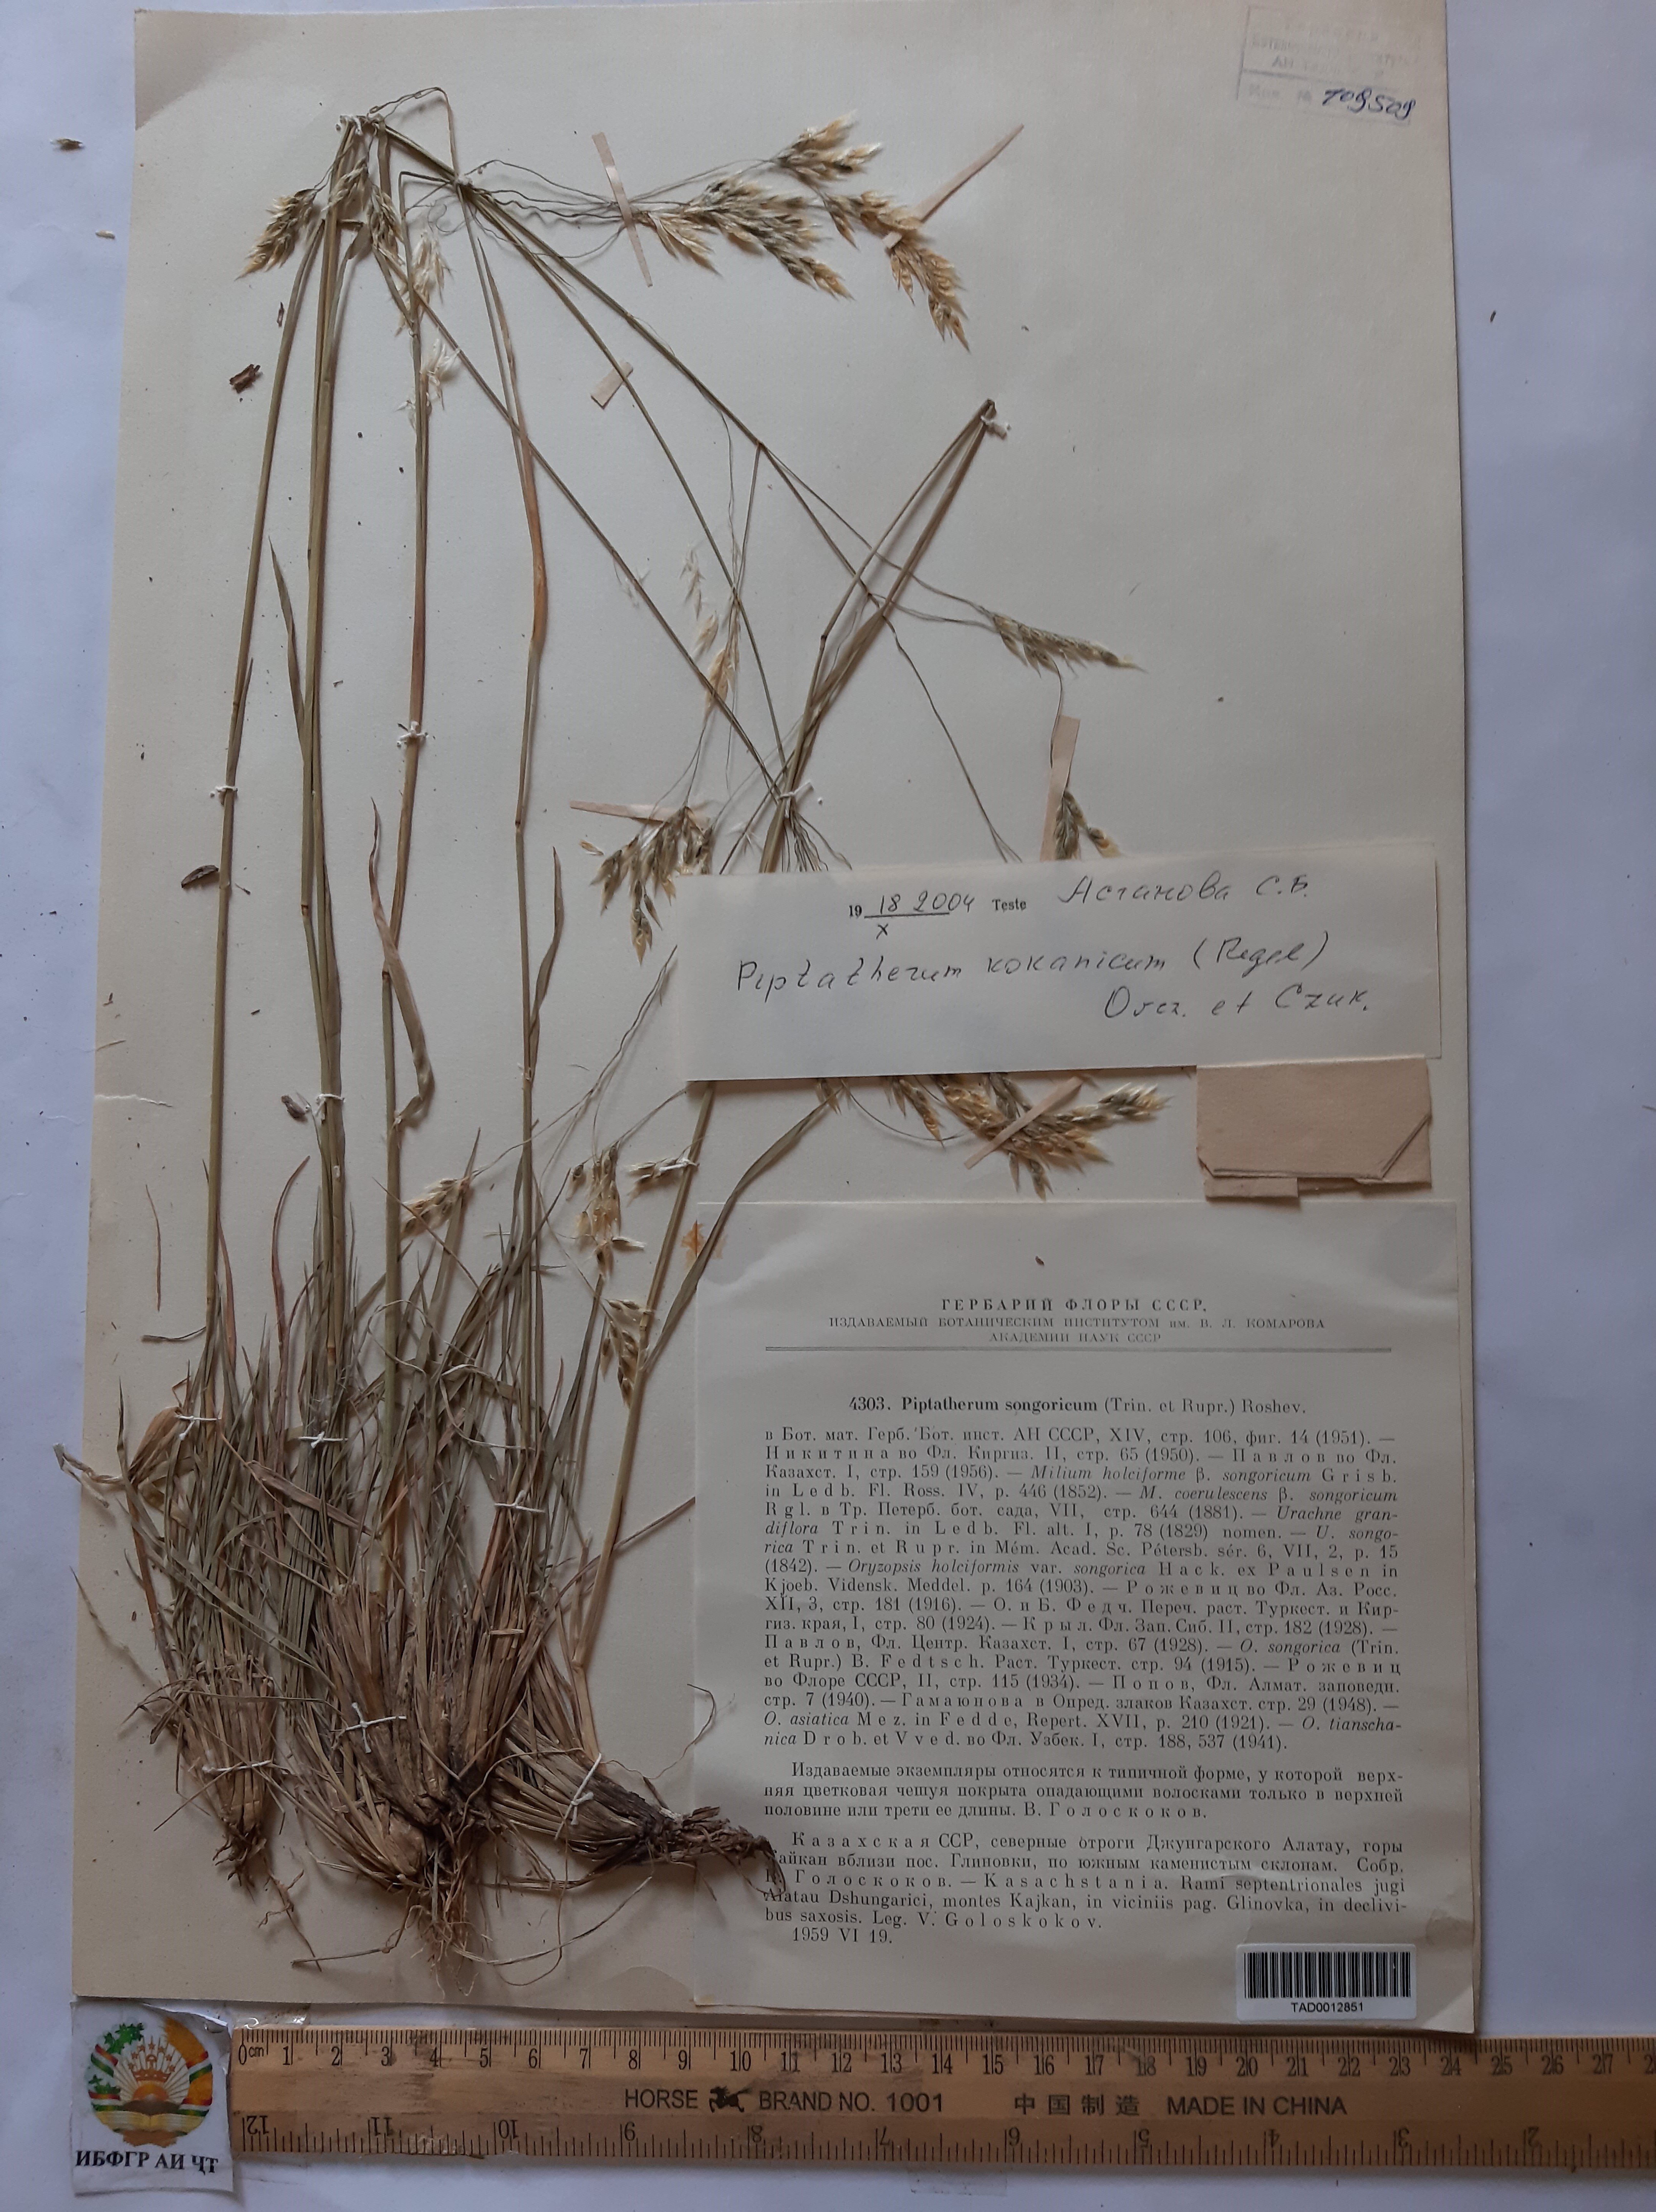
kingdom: Plantae
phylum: Tracheophyta
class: Liliopsida
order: Poales
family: Poaceae
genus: Piptatherum
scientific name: Piptatherum songaricum
